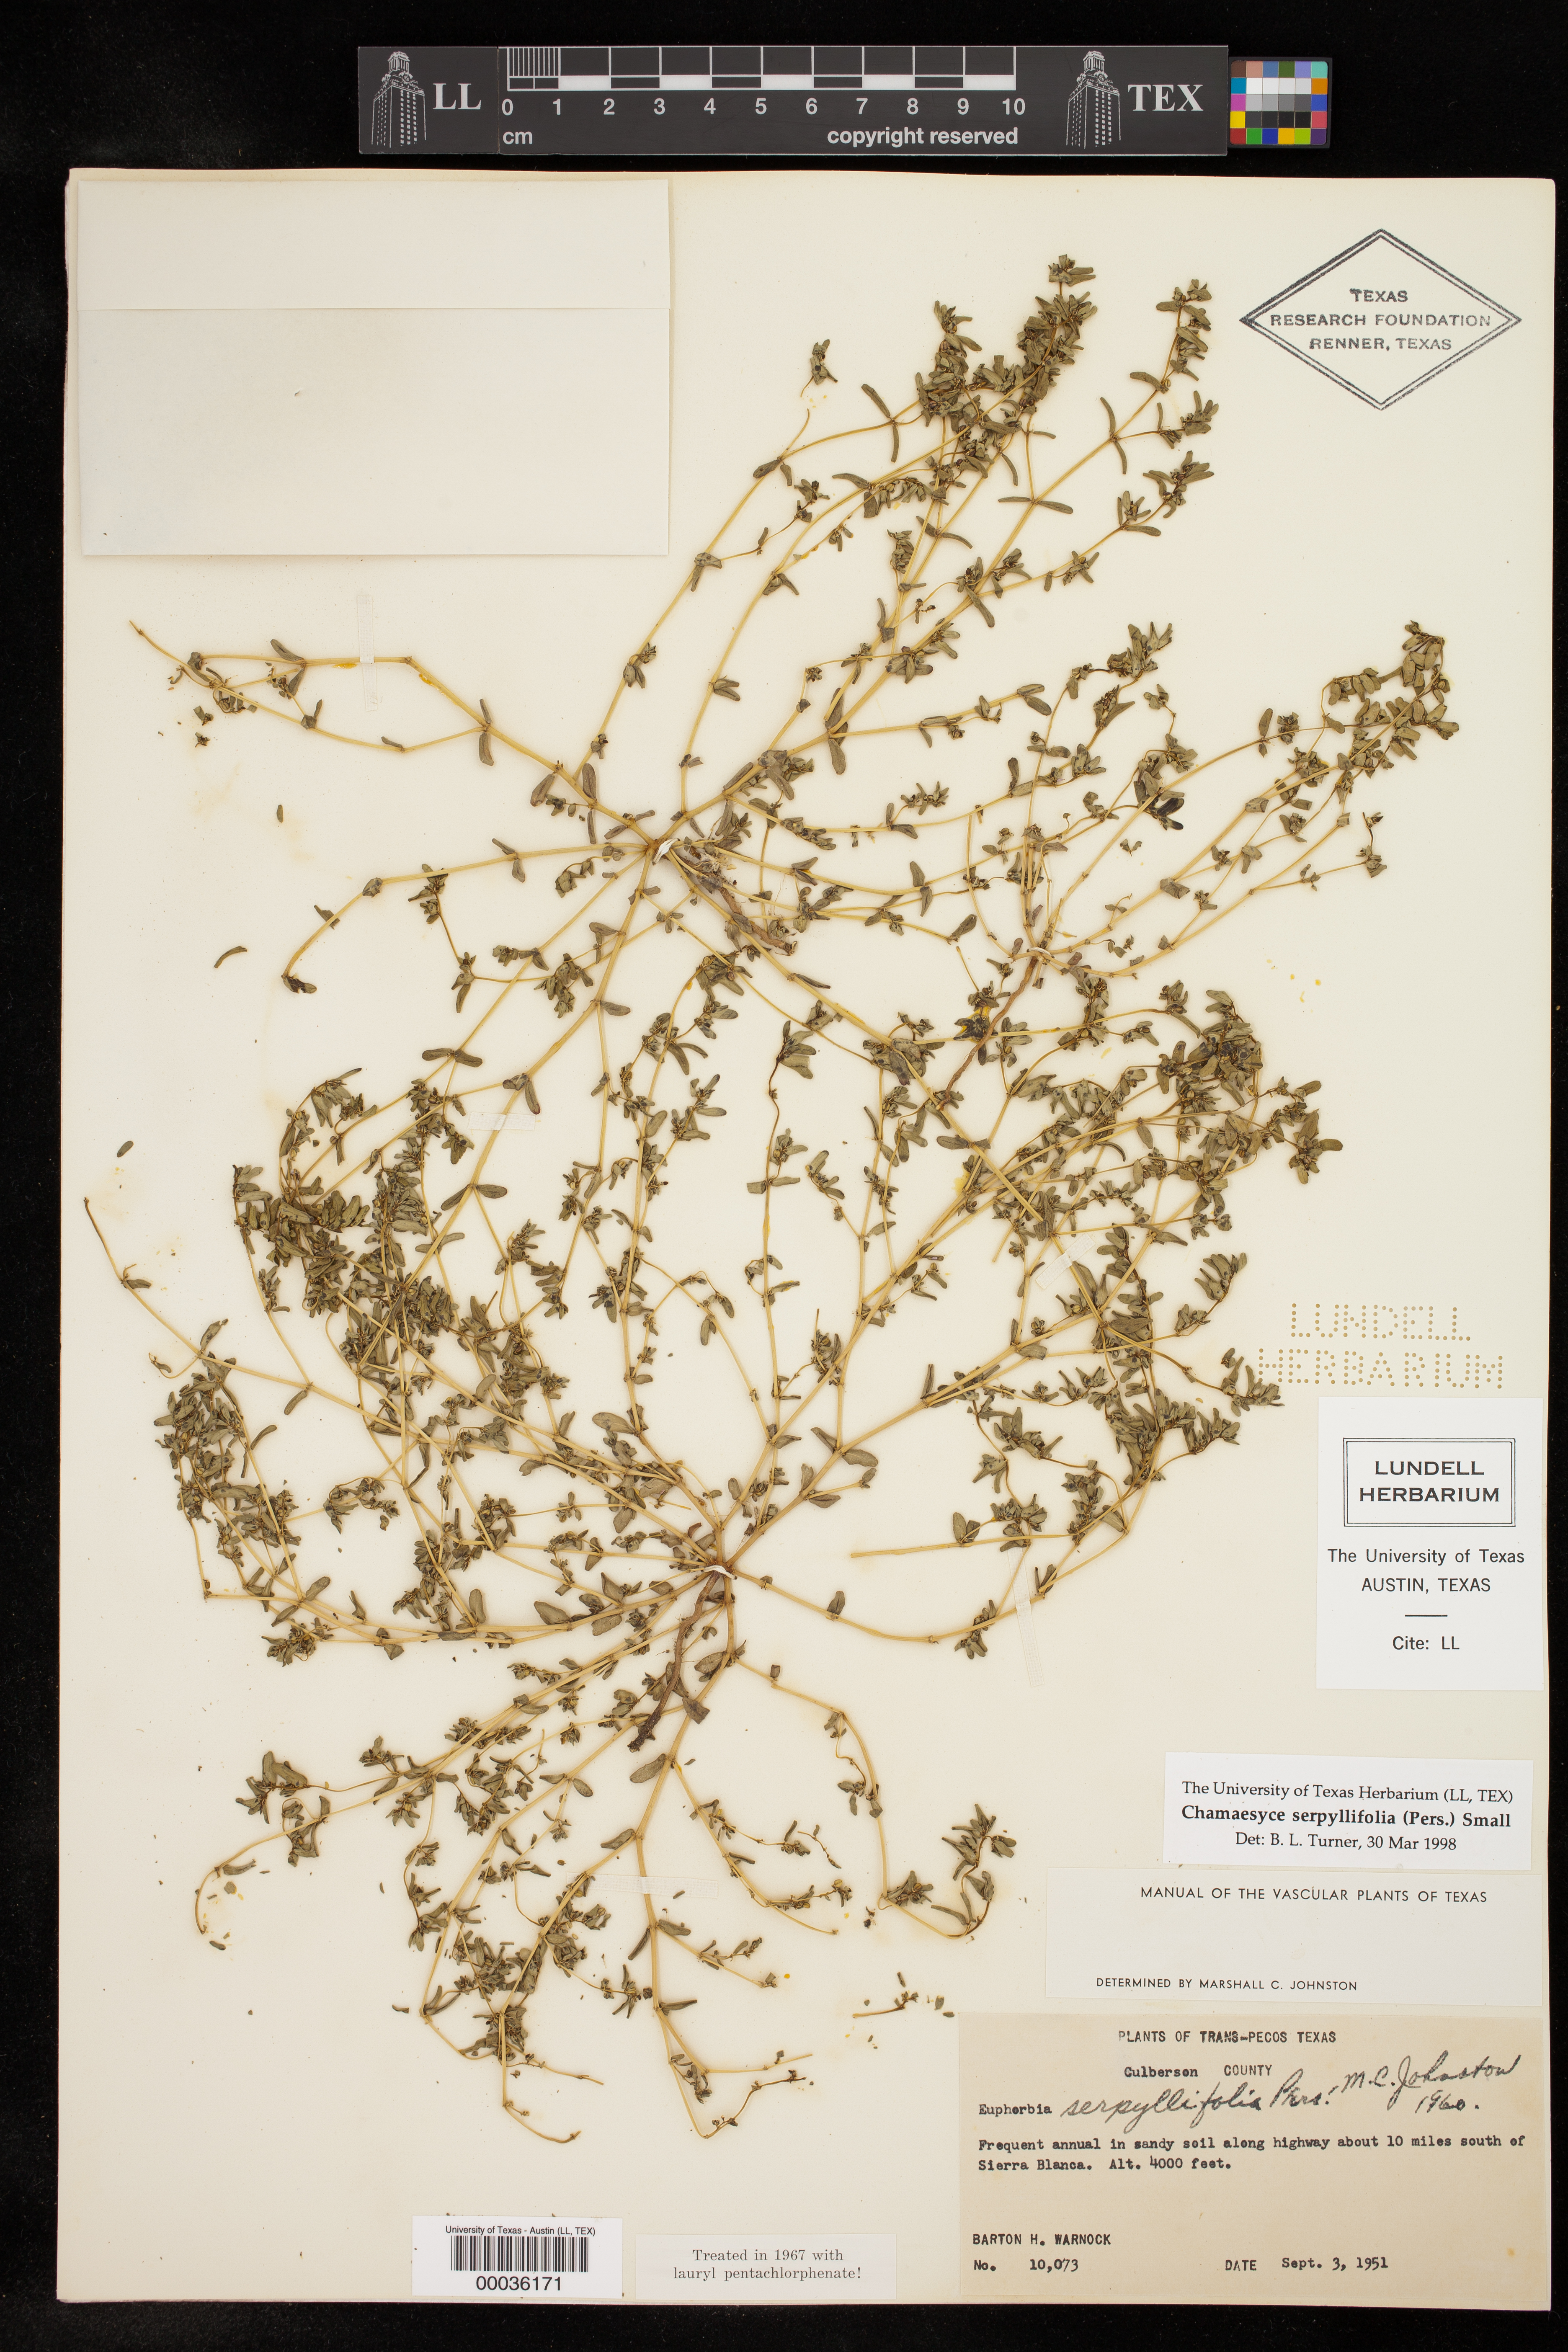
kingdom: Plantae
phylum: Tracheophyta
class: Magnoliopsida
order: Malpighiales
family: Euphorbiaceae
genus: Euphorbia
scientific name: Euphorbia serpillifolia
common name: Thyme-leaf spurge
